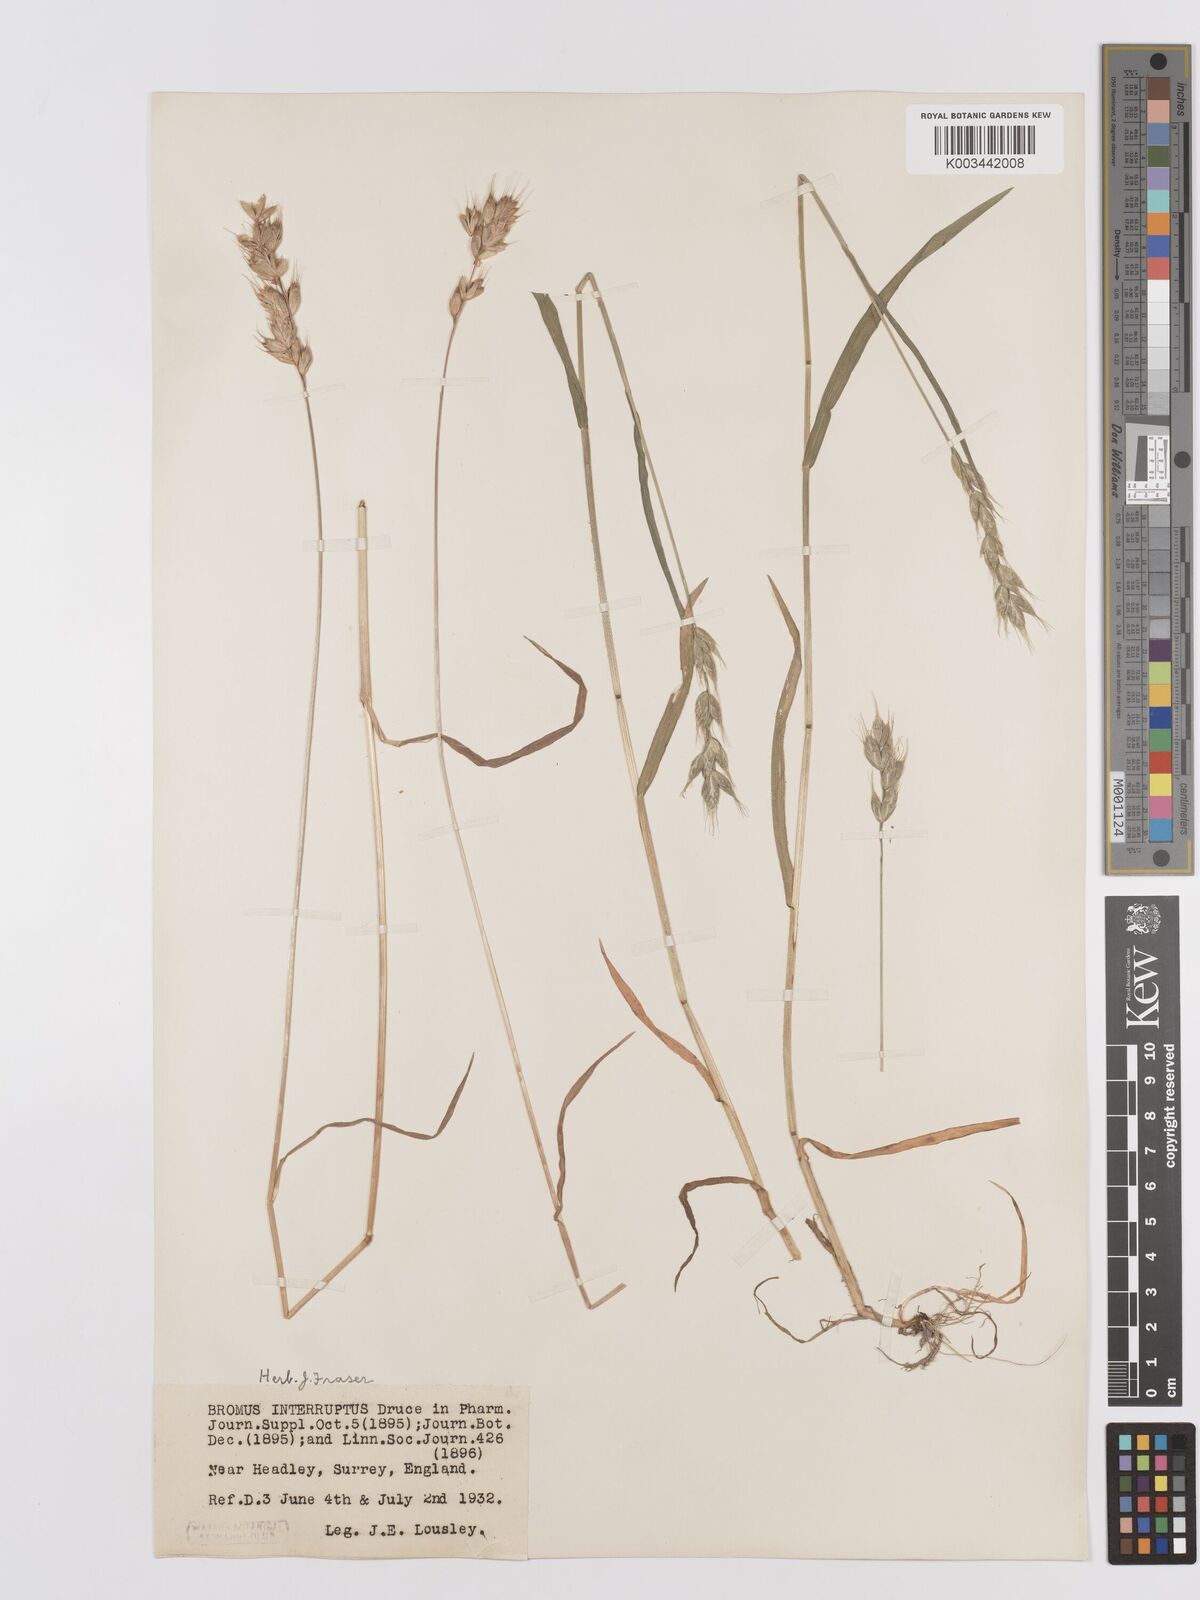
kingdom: Plantae
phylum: Tracheophyta
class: Liliopsida
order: Poales
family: Poaceae
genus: Bromus
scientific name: Bromus interruptus
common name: Interrupted brome
